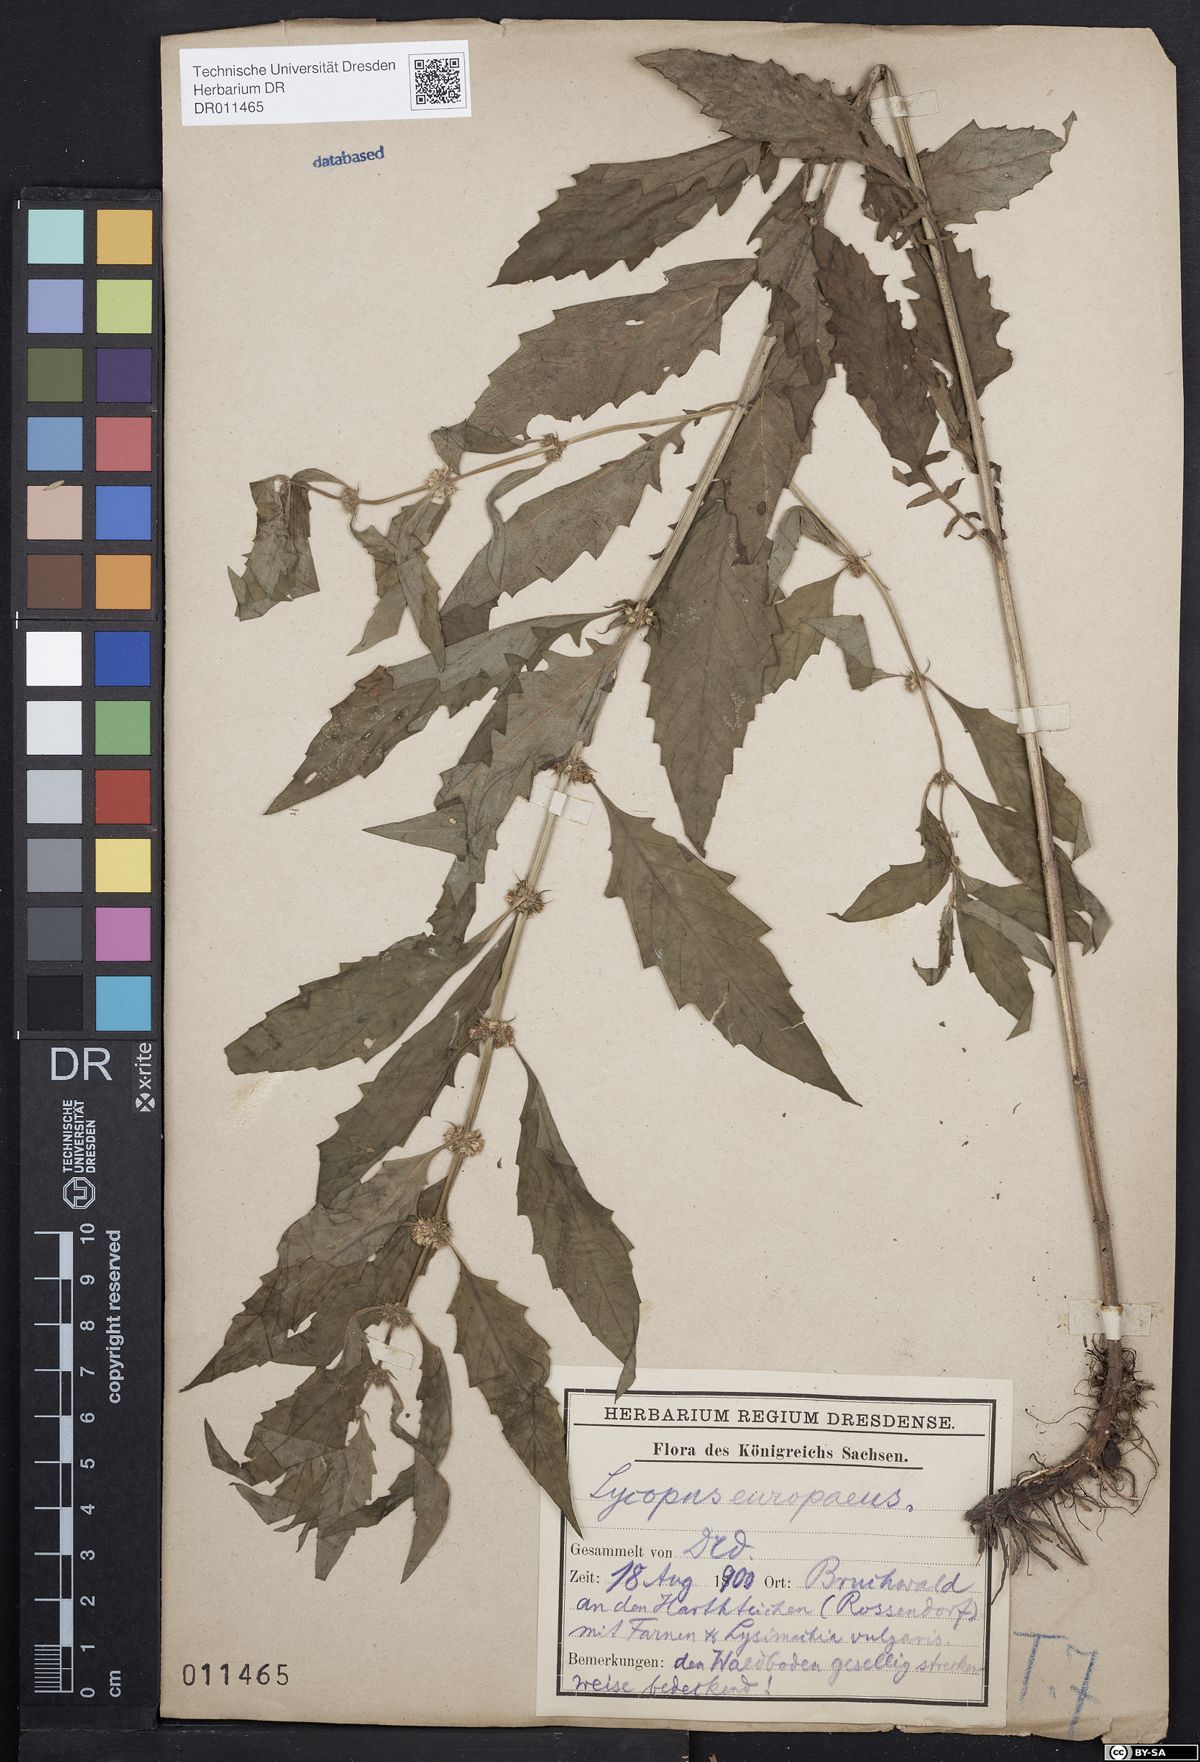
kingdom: Plantae
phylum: Tracheophyta
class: Magnoliopsida
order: Lamiales
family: Lamiaceae
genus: Lycopus
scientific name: Lycopus europaeus
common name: European bugleweed
